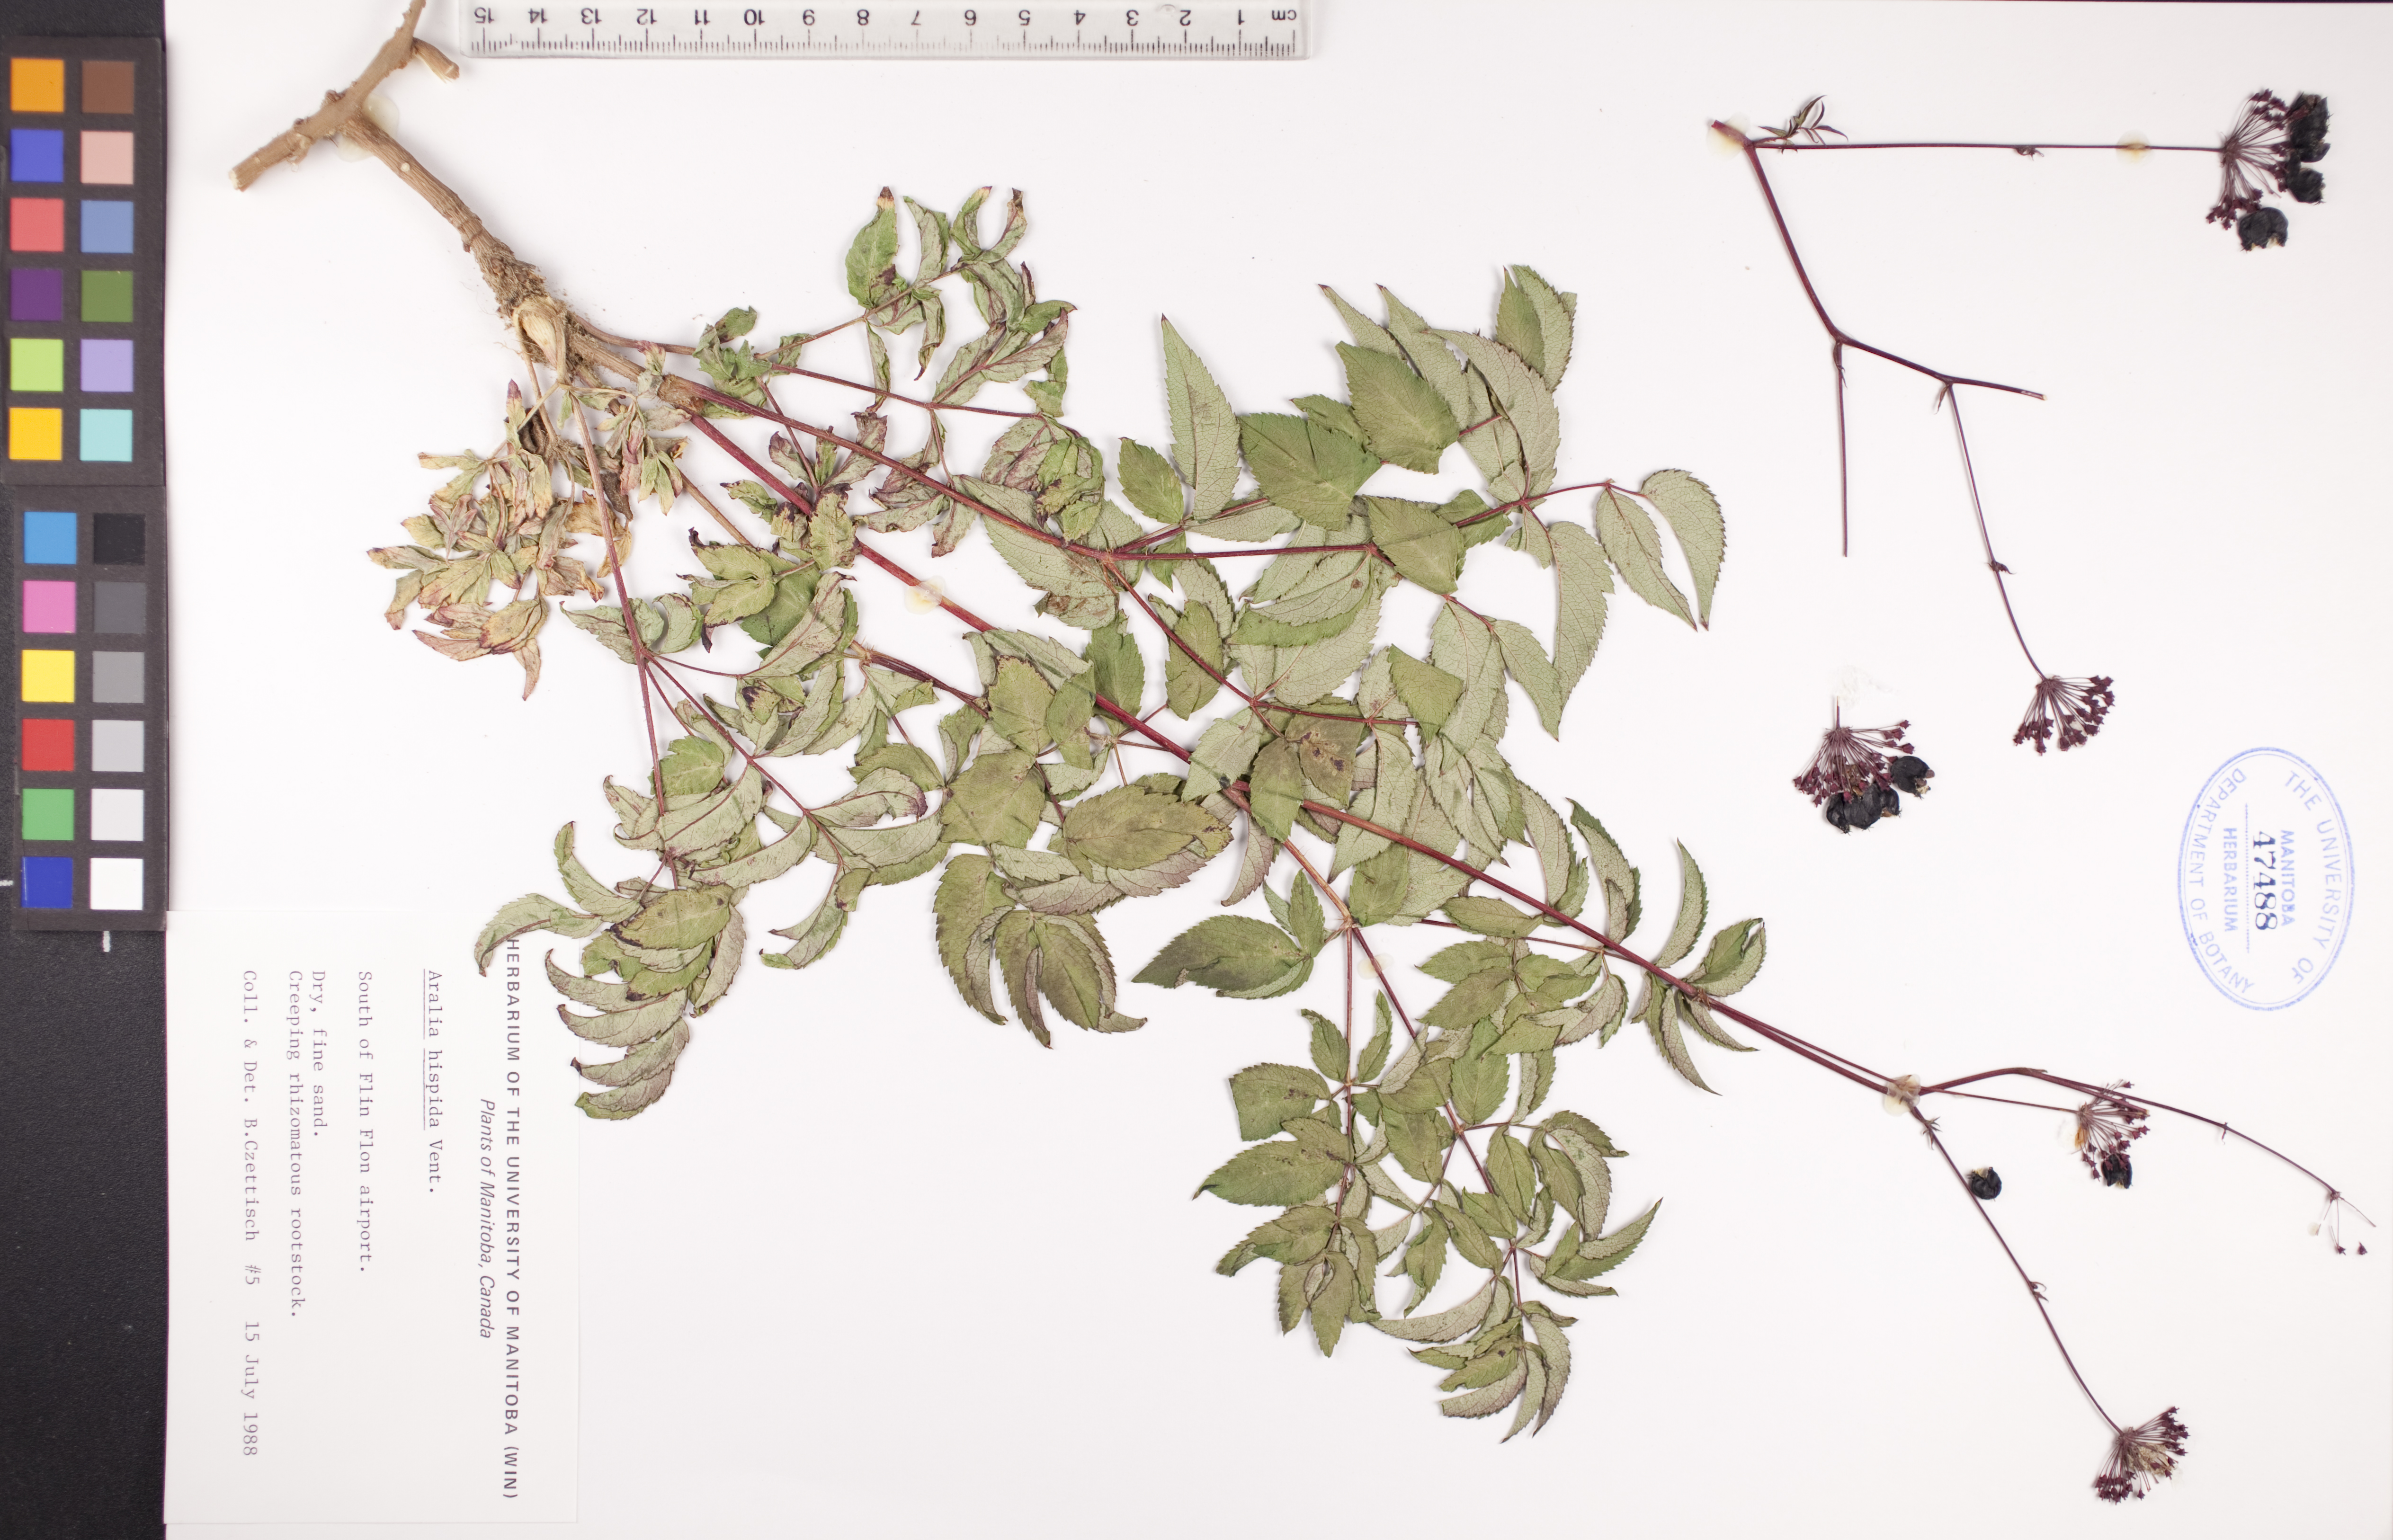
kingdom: Plantae
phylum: Tracheophyta
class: Magnoliopsida
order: Apiales
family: Araliaceae
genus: Aralia
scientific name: Aralia hispida
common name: Bristly sarsaparilla
